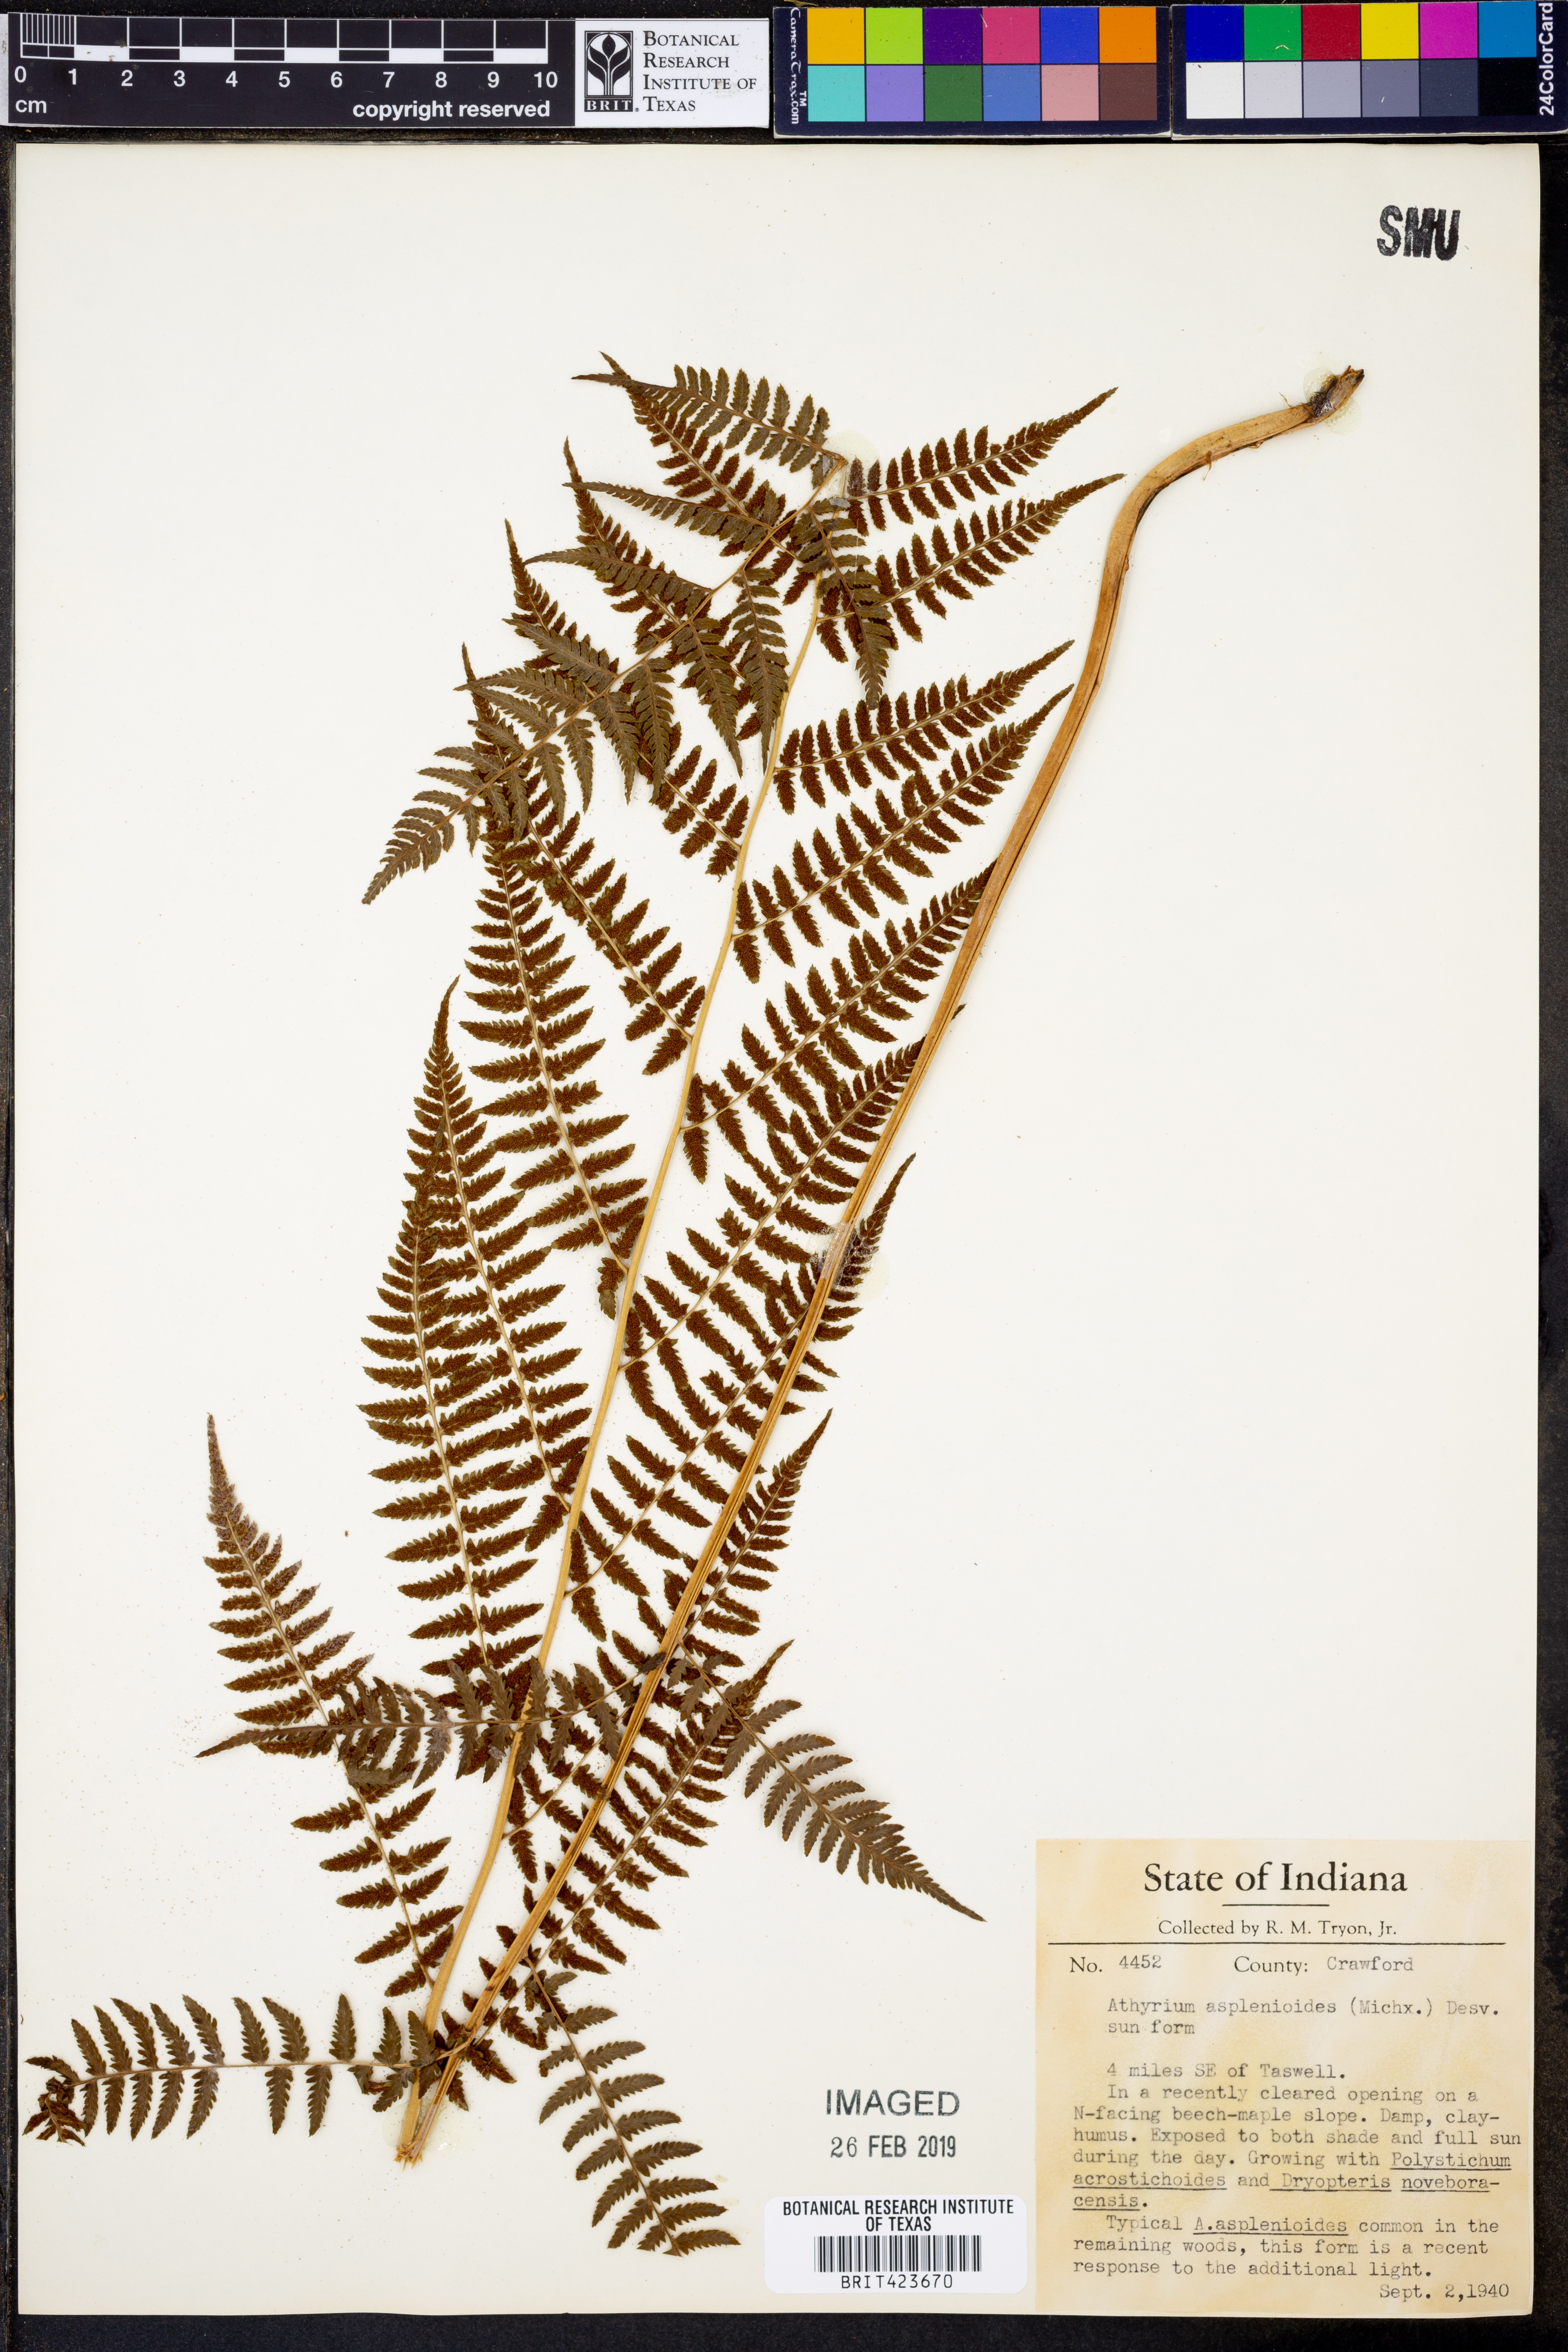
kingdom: Plantae
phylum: Tracheophyta
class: Polypodiopsida
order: Polypodiales
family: Athyriaceae
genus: Athyrium
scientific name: Athyrium asplenioides
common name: Southern lady fern
